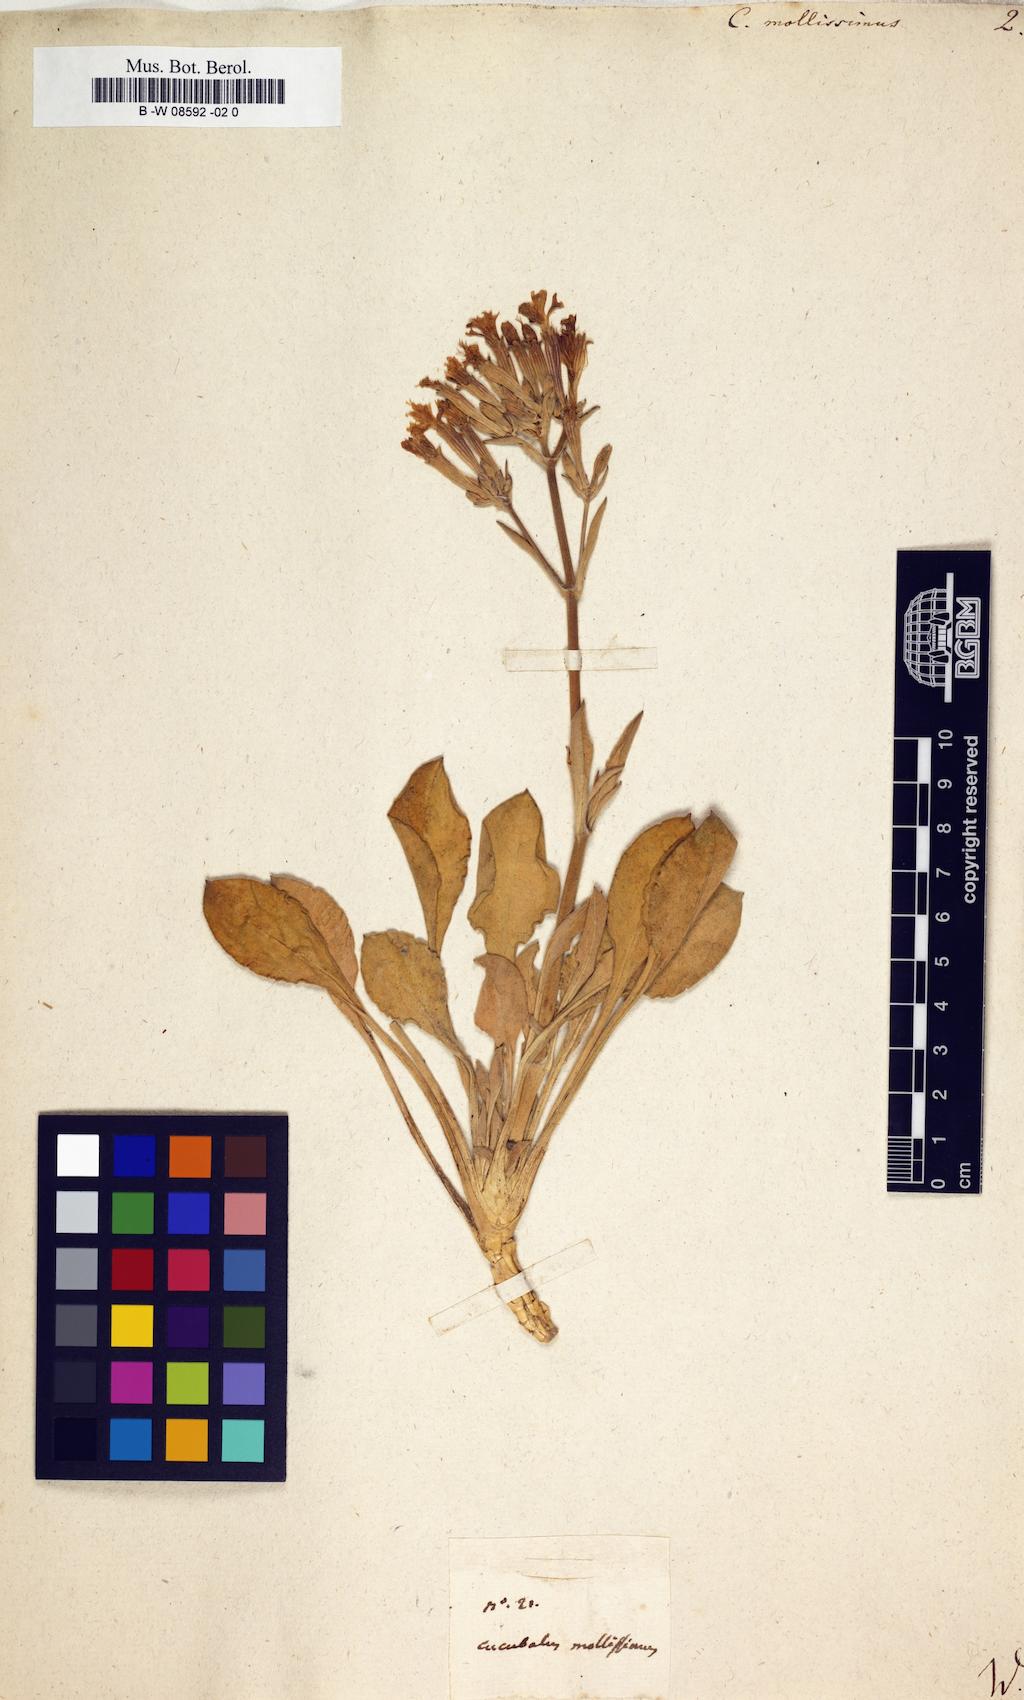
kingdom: Plantae
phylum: Tracheophyta
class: Magnoliopsida
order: Caryophyllales
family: Caryophyllaceae
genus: Silene
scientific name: Silene
